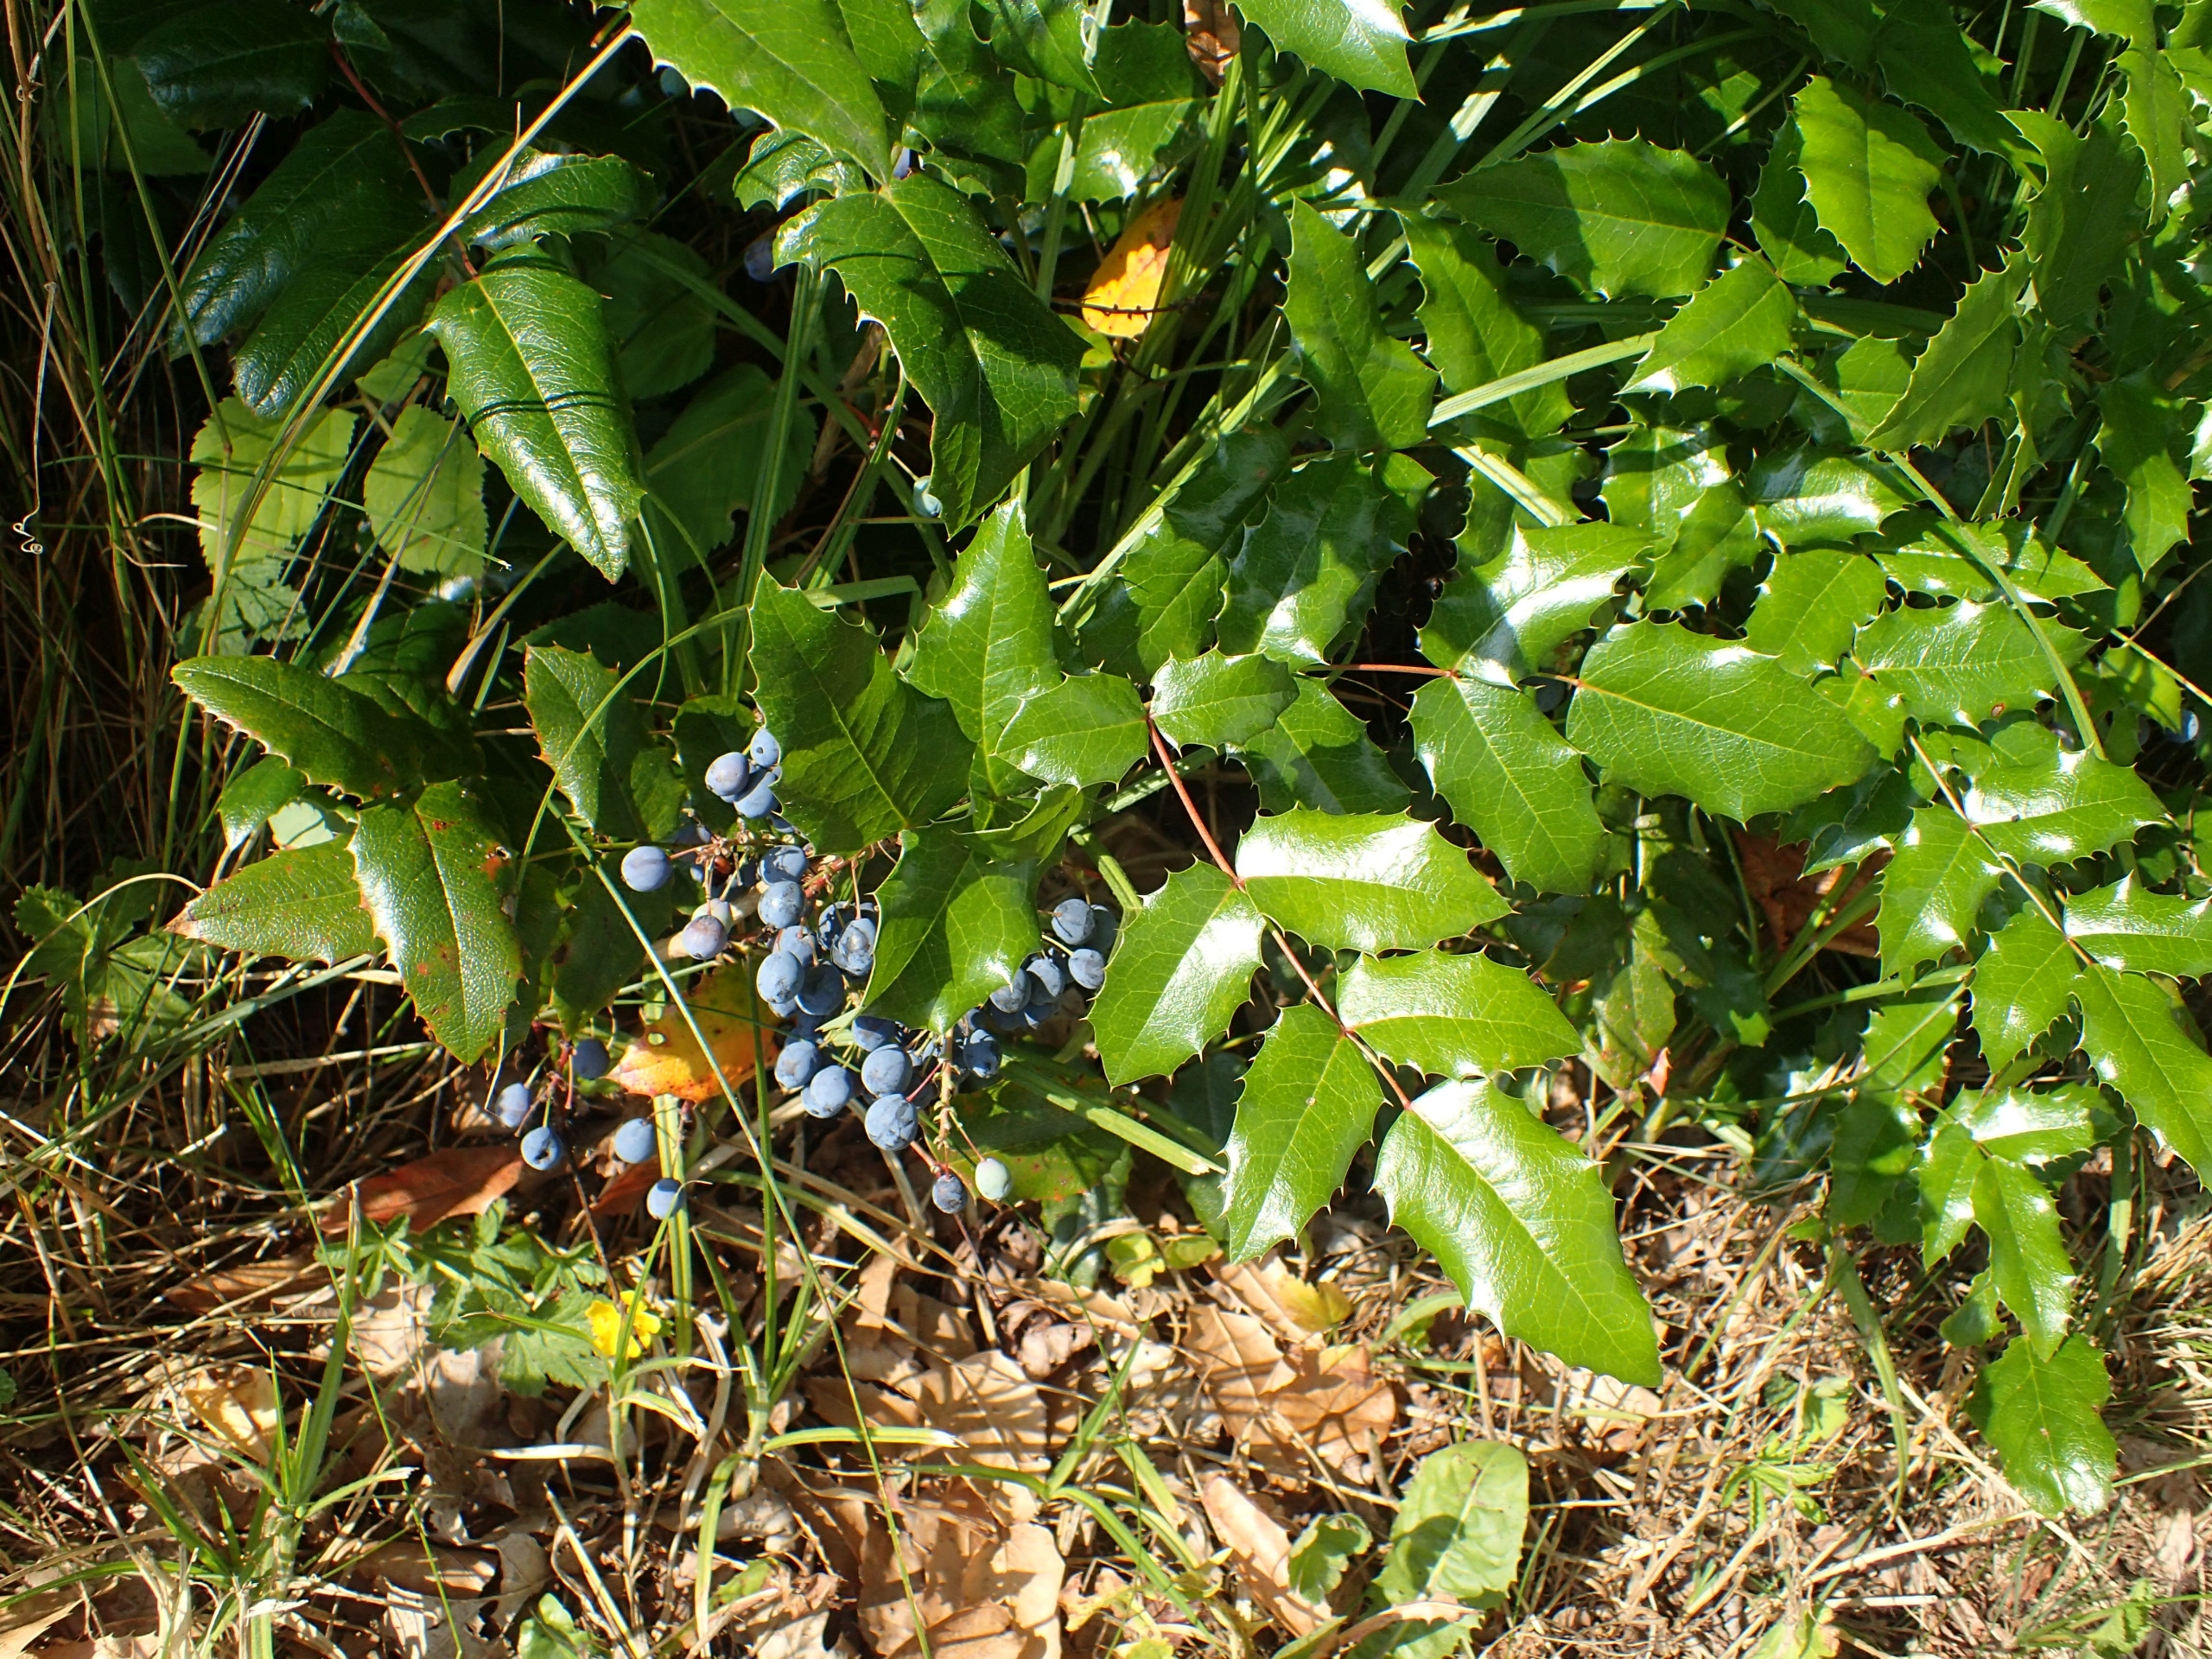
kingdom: Plantae
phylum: Tracheophyta
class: Magnoliopsida
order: Ranunculales
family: Berberidaceae
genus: Mahonia
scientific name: Mahonia aquifolium
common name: Almindelig mahonie
